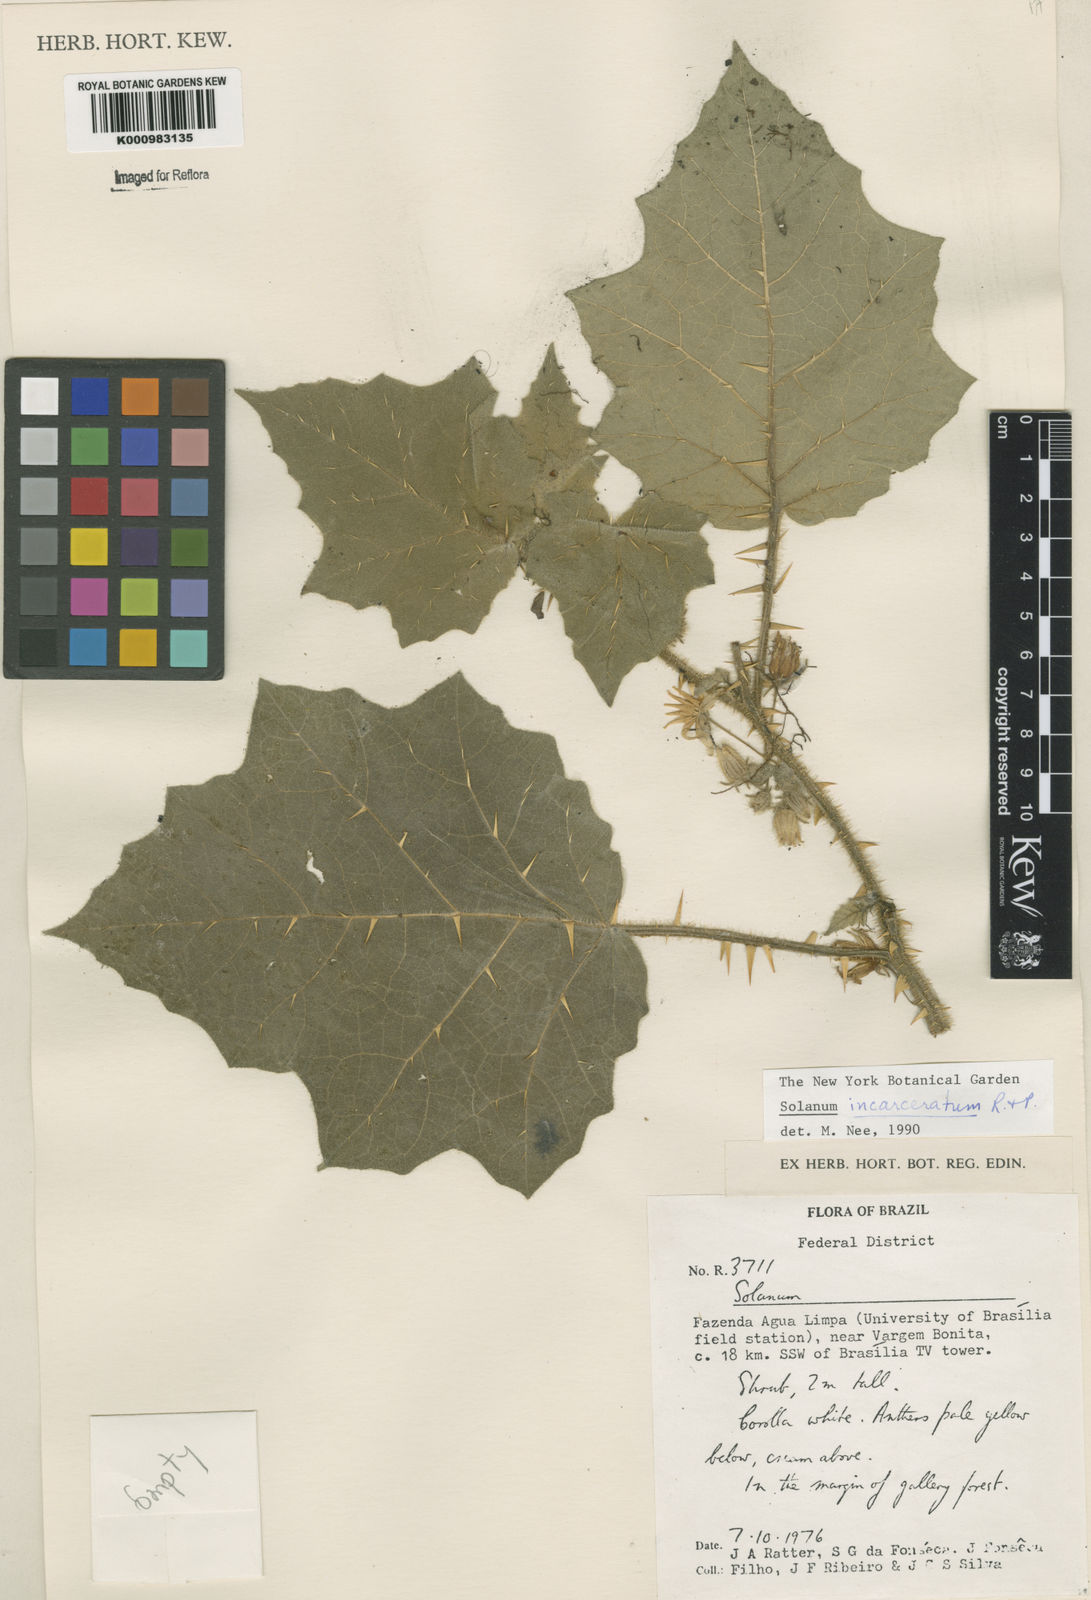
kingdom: Plantae
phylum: Tracheophyta
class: Magnoliopsida
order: Solanales
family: Solanaceae
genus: Solanum
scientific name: Solanum incarceratum
